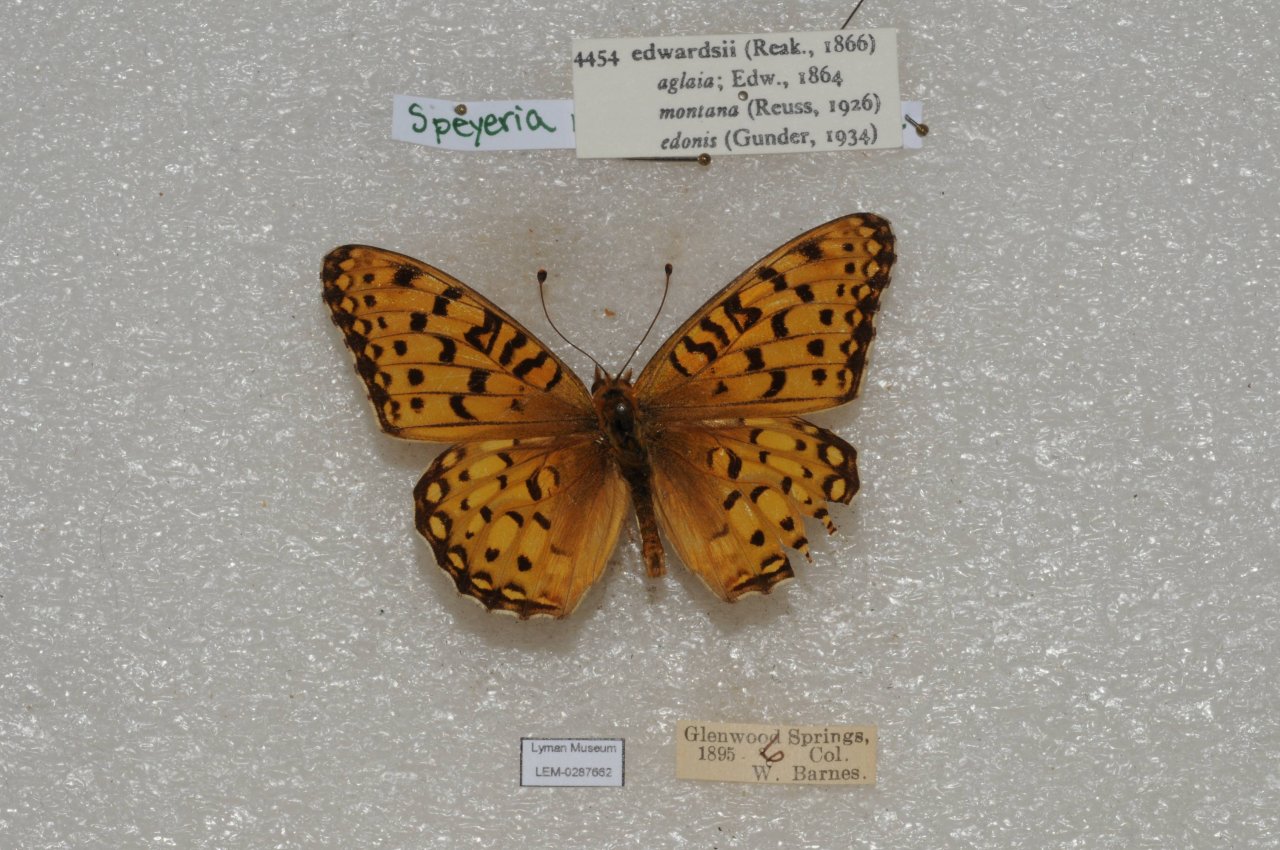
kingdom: Animalia
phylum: Arthropoda
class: Insecta
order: Lepidoptera
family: Nymphalidae
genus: Speyeria
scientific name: Speyeria edwardsii
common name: Edwards' Fritillary
